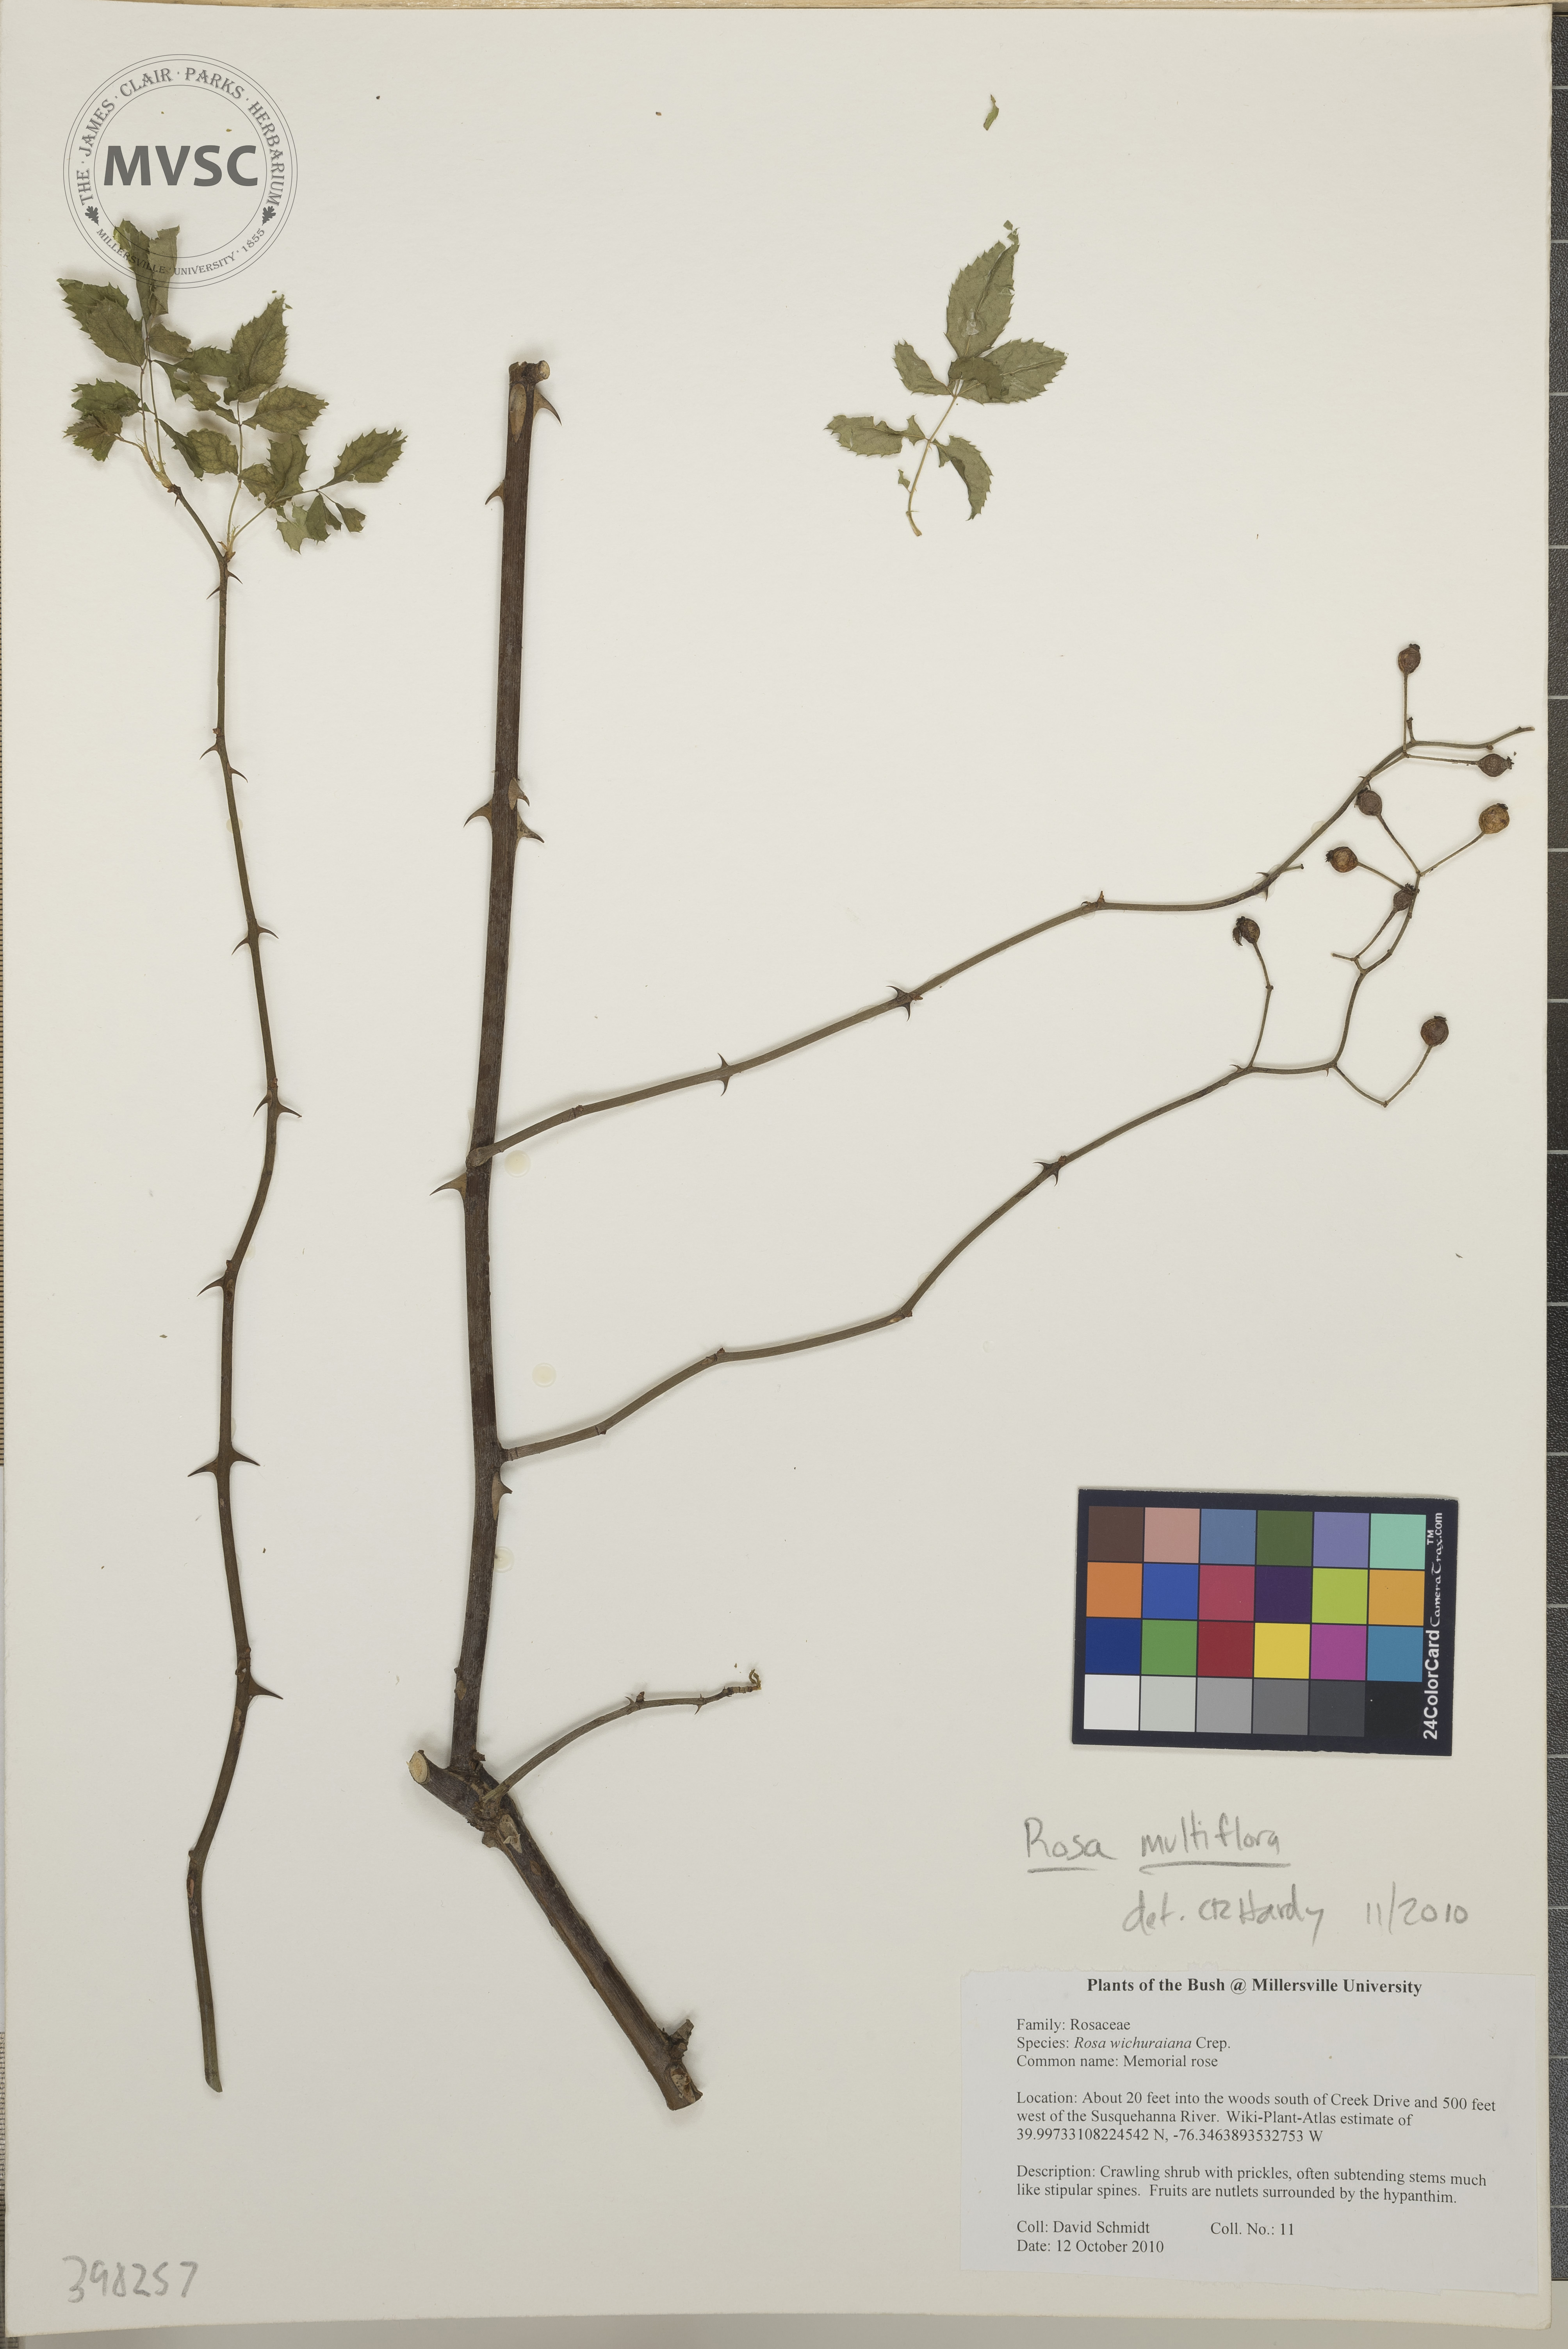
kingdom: Plantae
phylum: Tracheophyta
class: Magnoliopsida
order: Rosales
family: Rosaceae
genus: Rosa
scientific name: Rosa multiflora
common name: Multiflora rose
